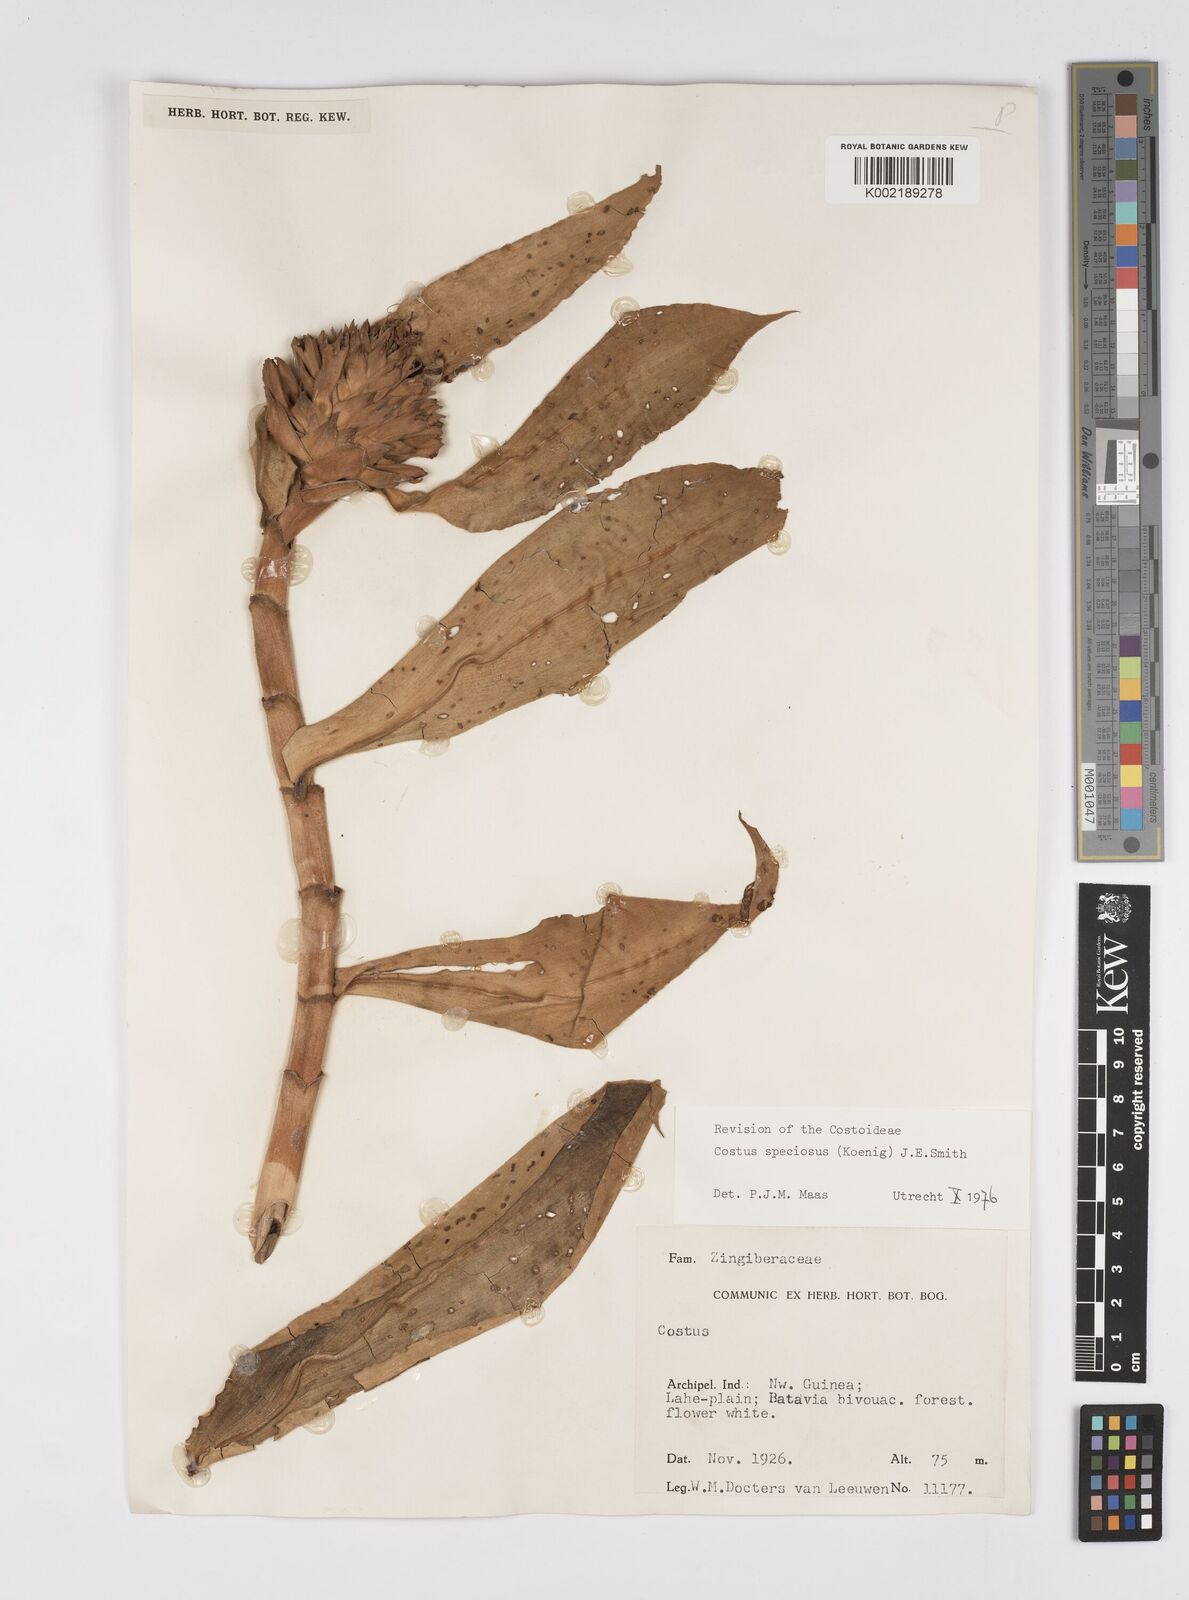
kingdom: Plantae
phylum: Tracheophyta
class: Liliopsida
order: Zingiberales
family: Costaceae
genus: Hellenia
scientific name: Hellenia speciosa
